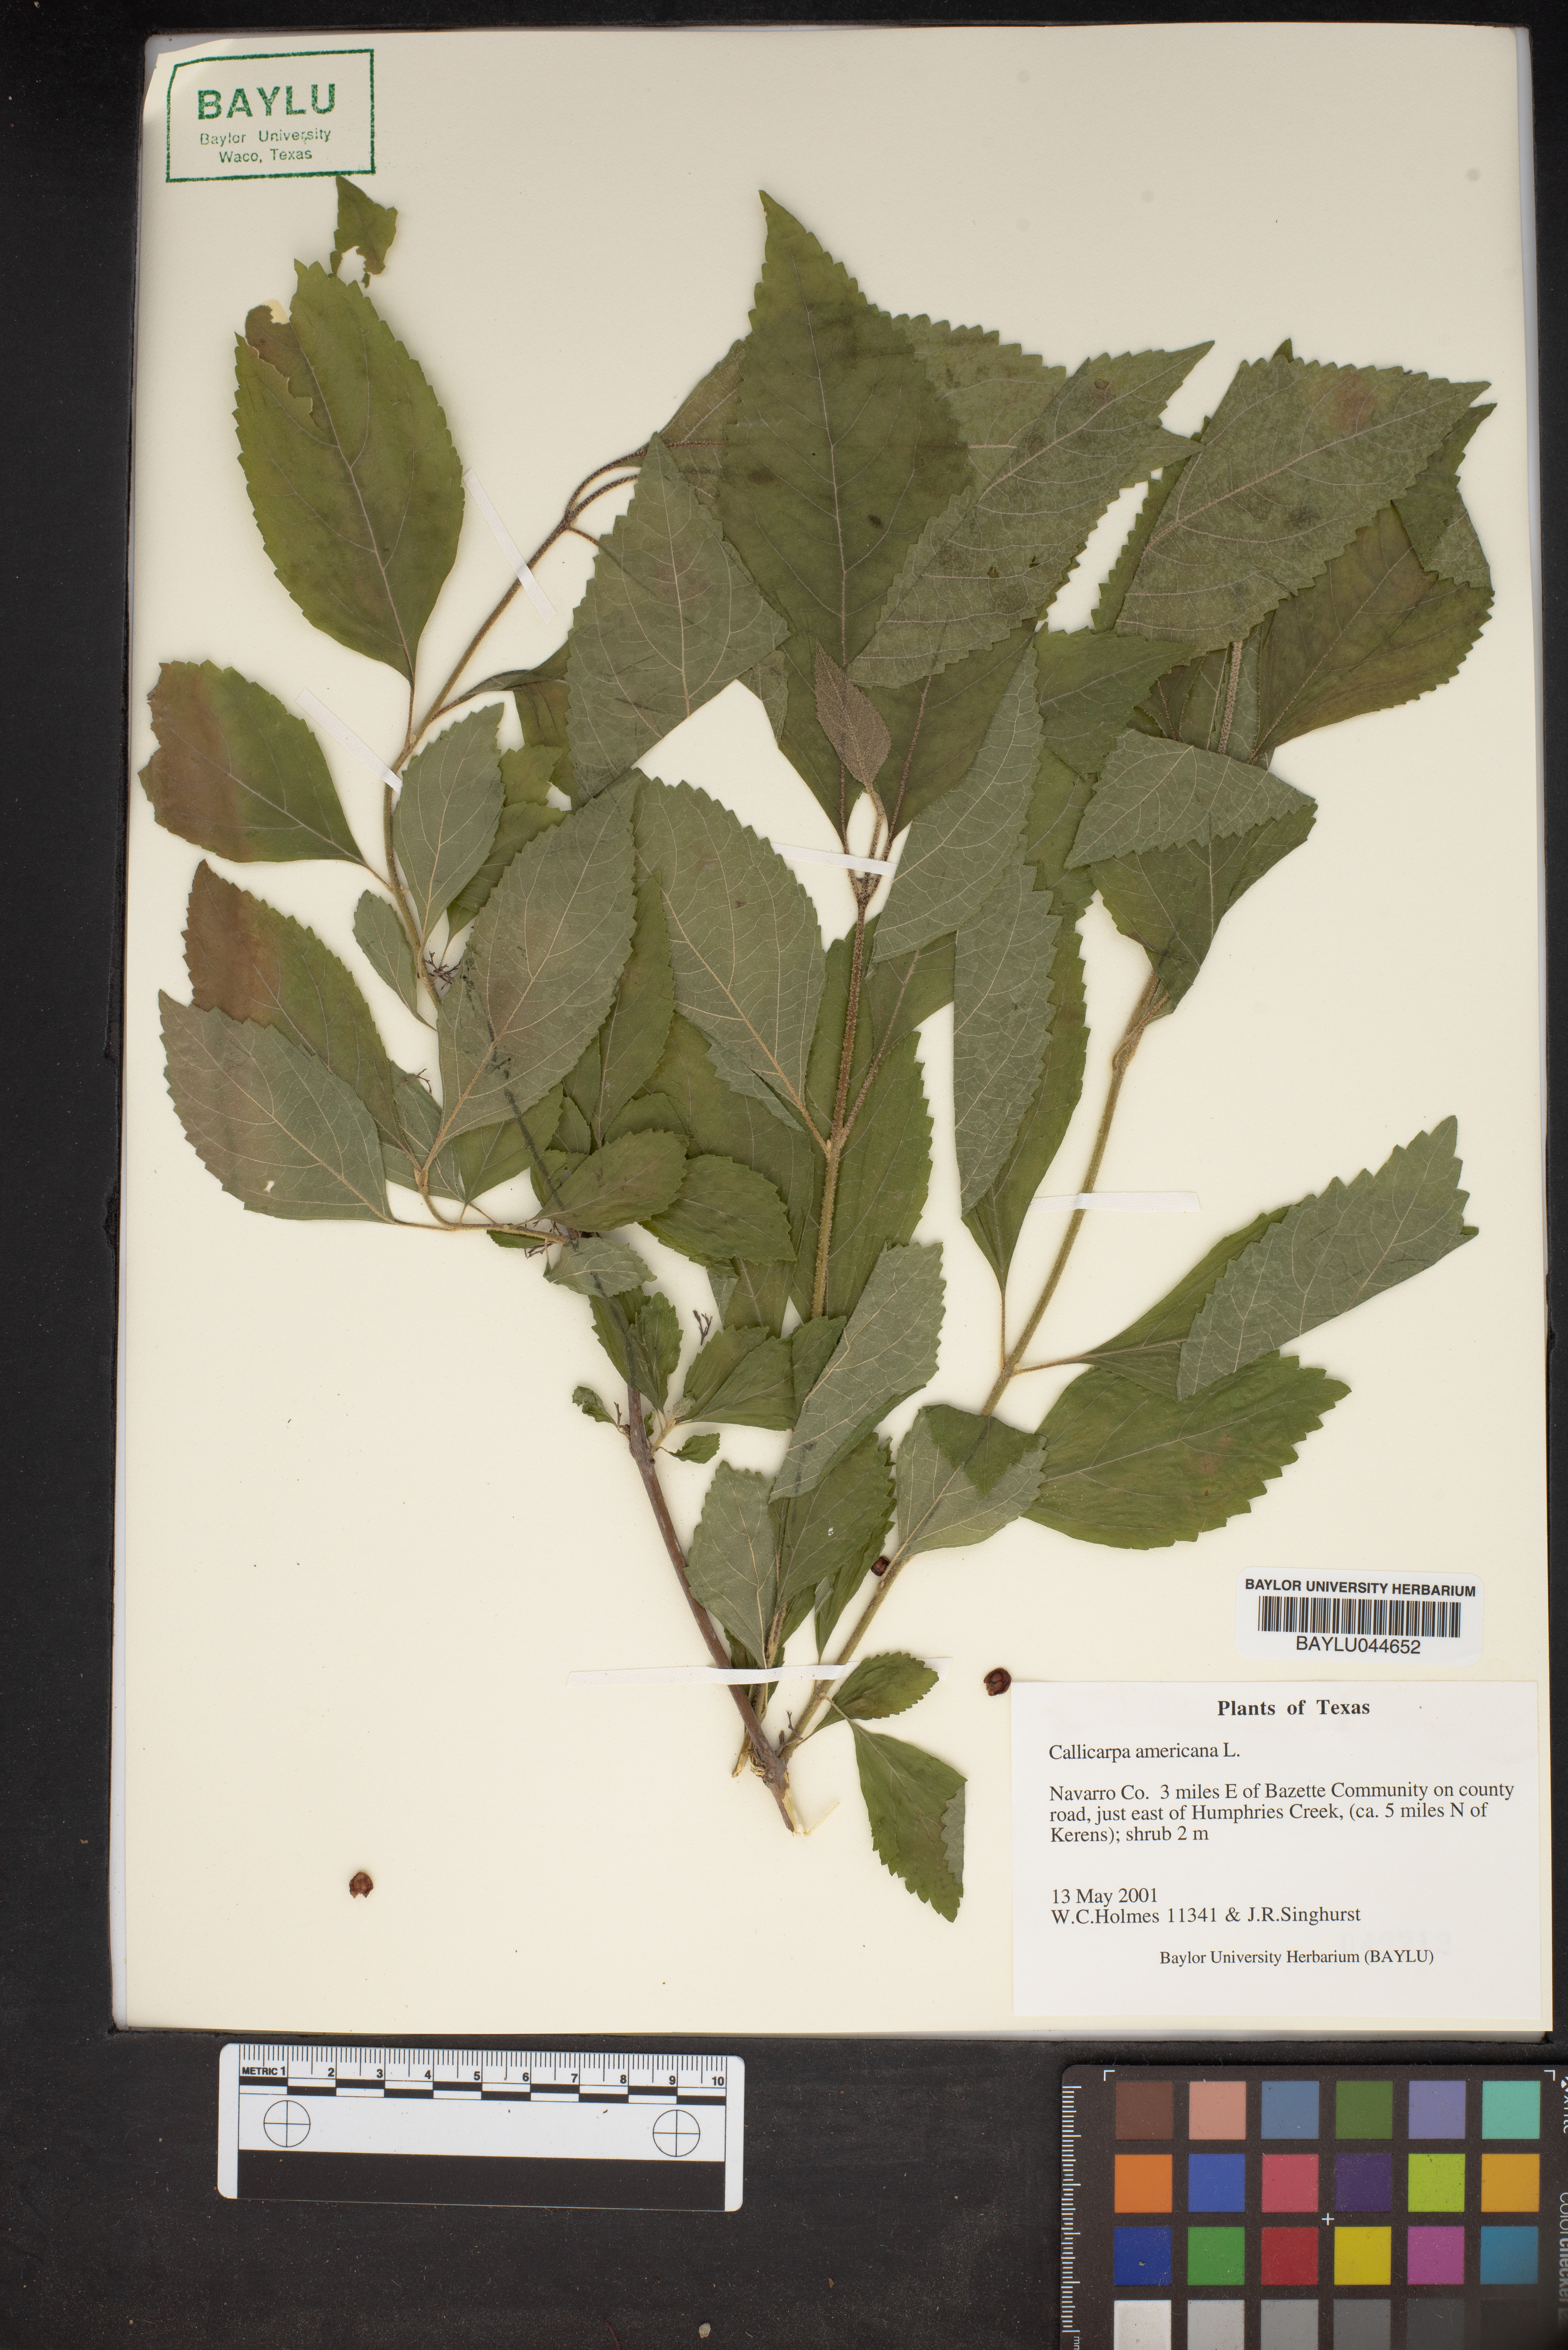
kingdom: Plantae
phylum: Tracheophyta
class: Magnoliopsida
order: Lamiales
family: Lamiaceae
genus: Callicarpa
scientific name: Callicarpa americana
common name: American beautyberry
